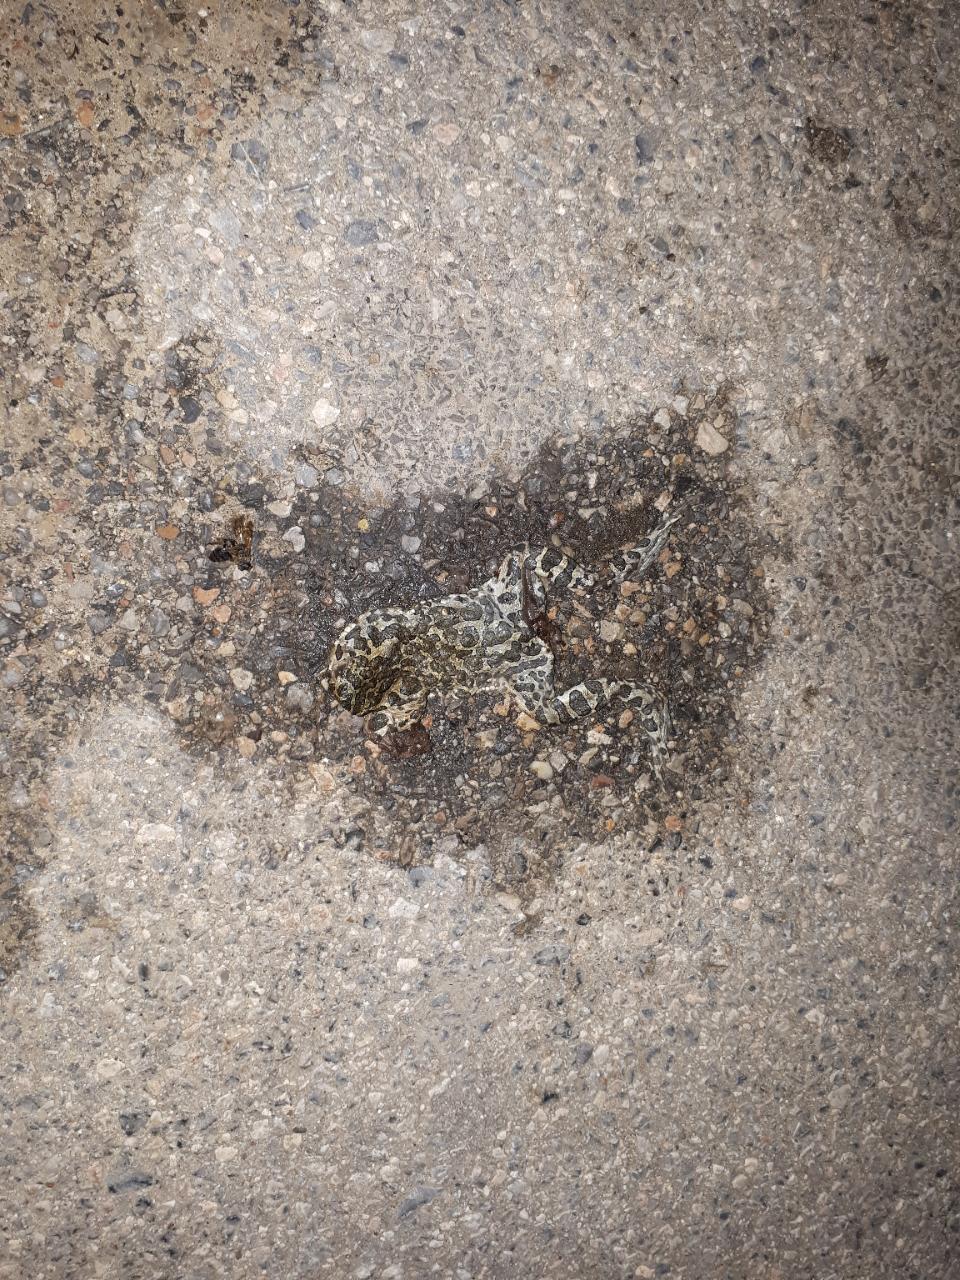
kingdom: Animalia
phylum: Chordata
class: Amphibia
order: Anura
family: Bufonidae
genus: Bufotes
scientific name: Bufotes viridis
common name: European green toad
